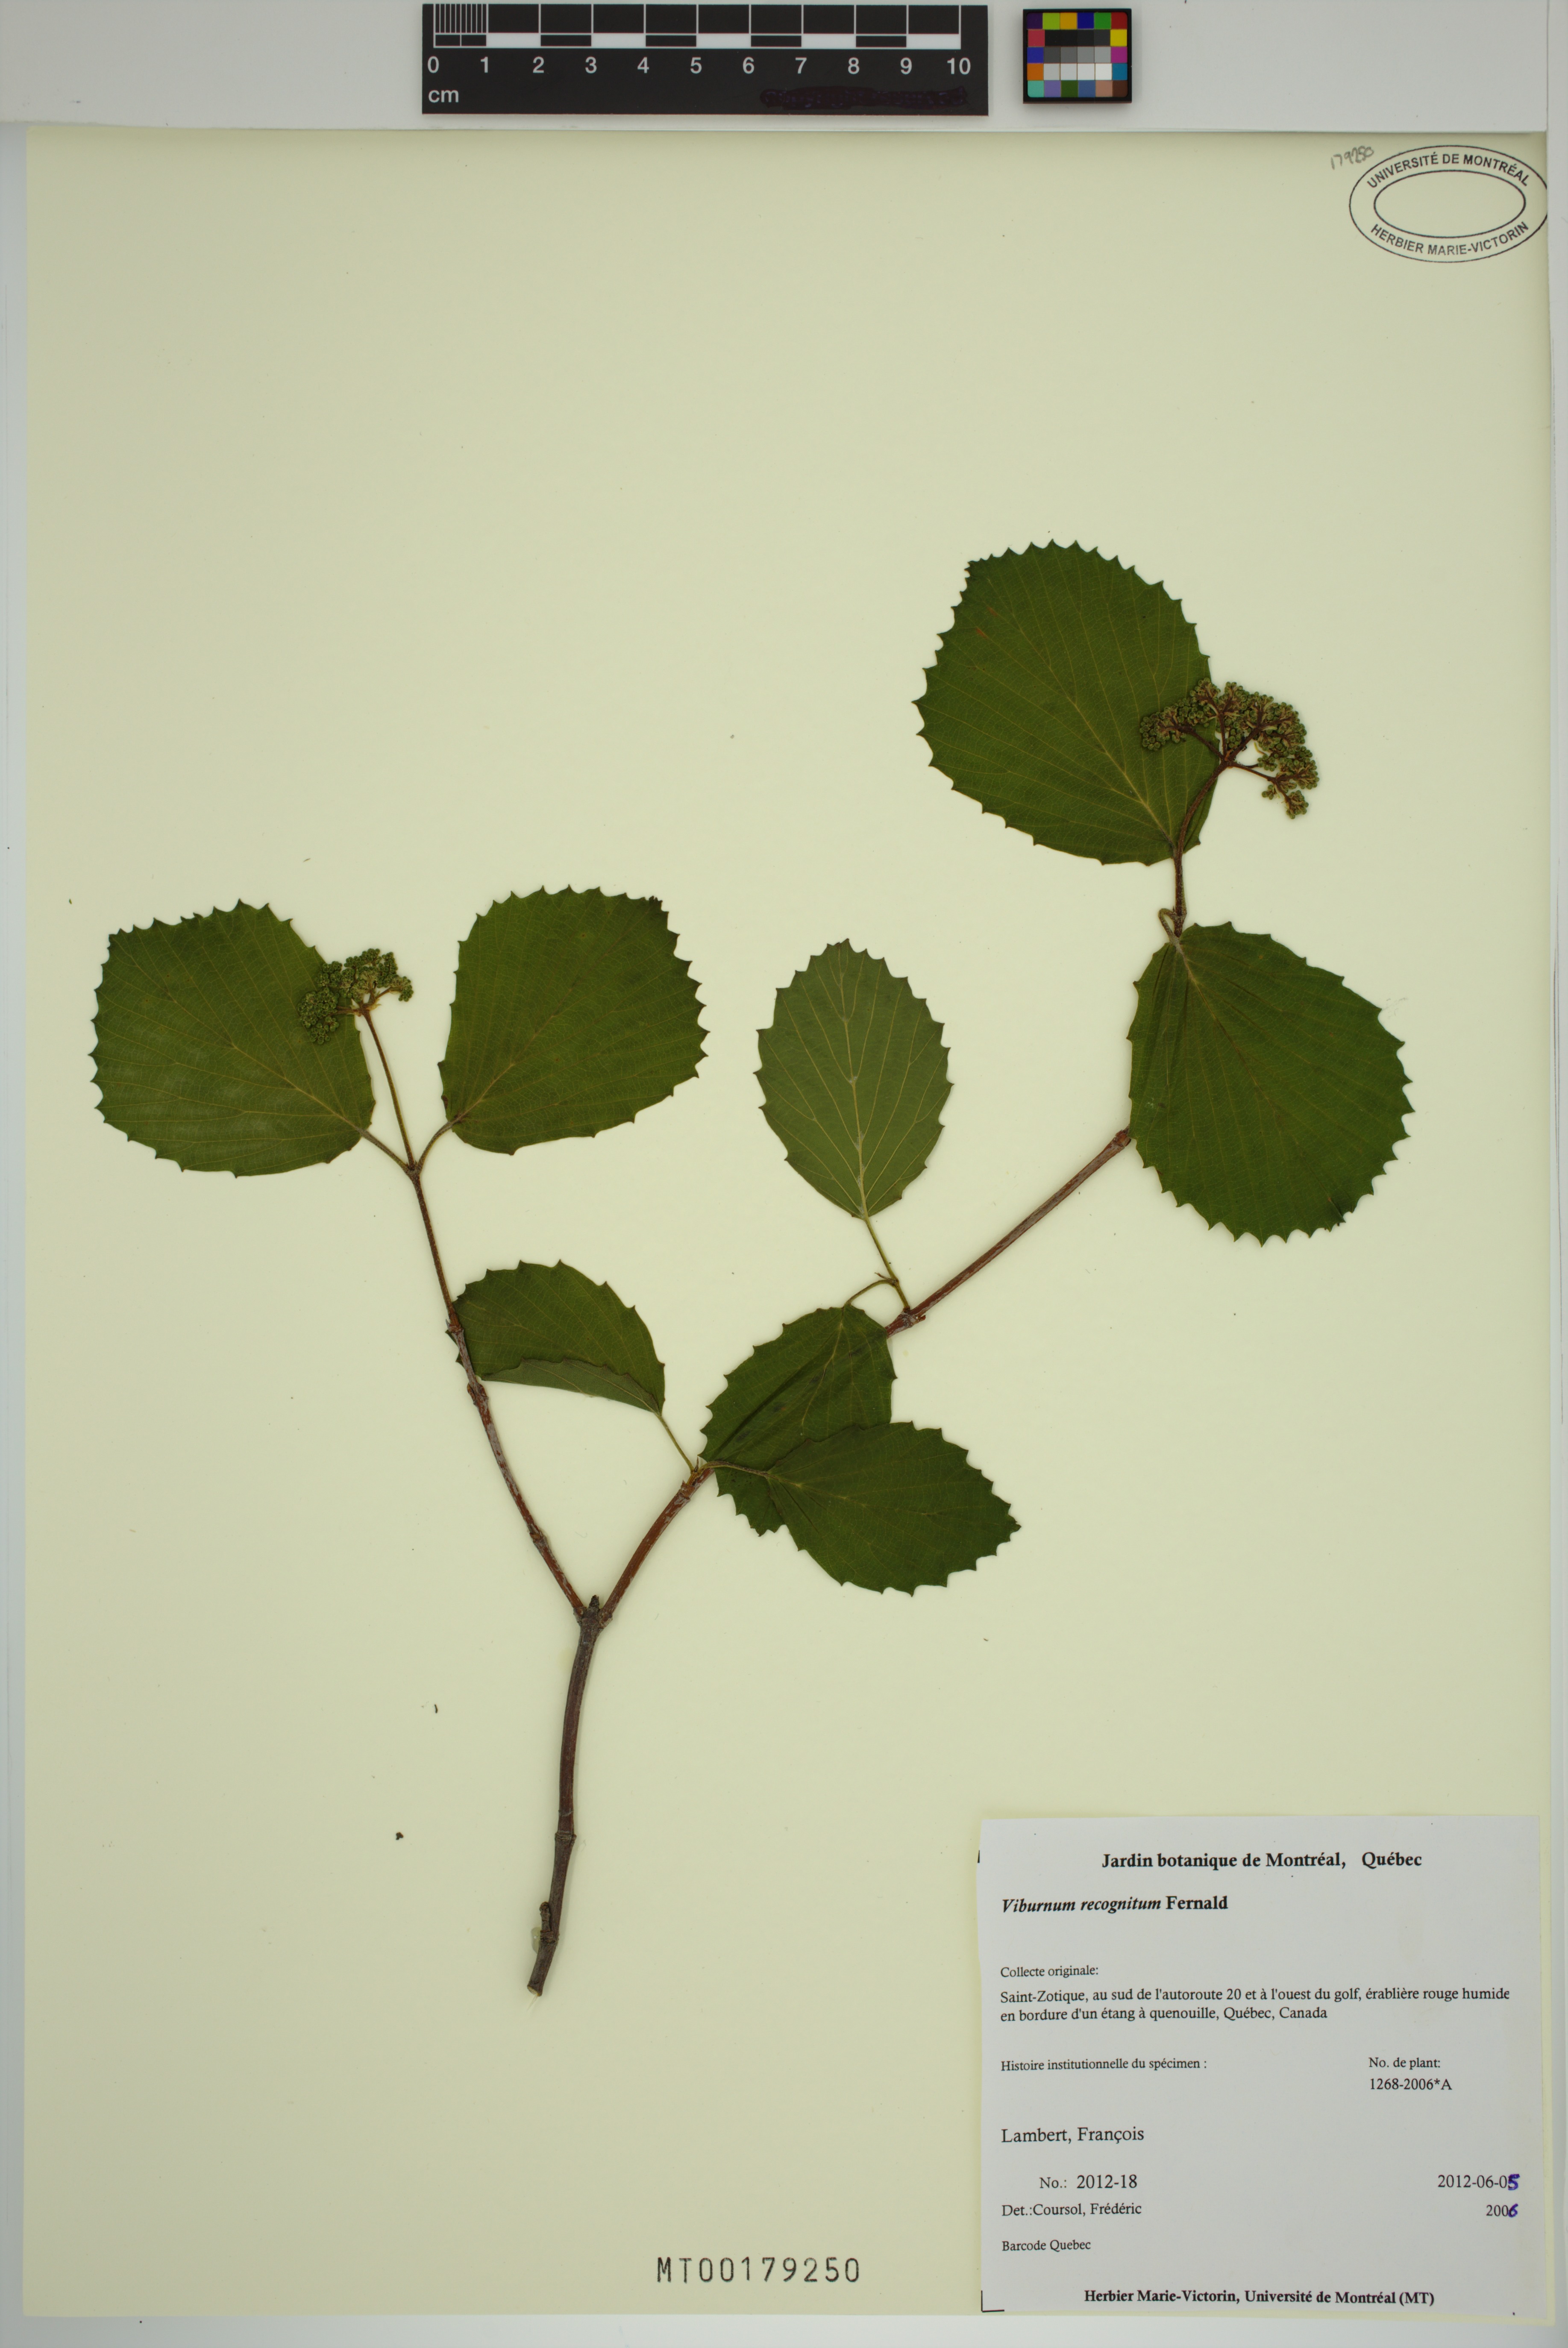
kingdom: Plantae
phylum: Tracheophyta
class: Magnoliopsida
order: Dipsacales
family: Viburnaceae
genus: Viburnum
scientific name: Viburnum recognitum
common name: Northern arrow-wood
